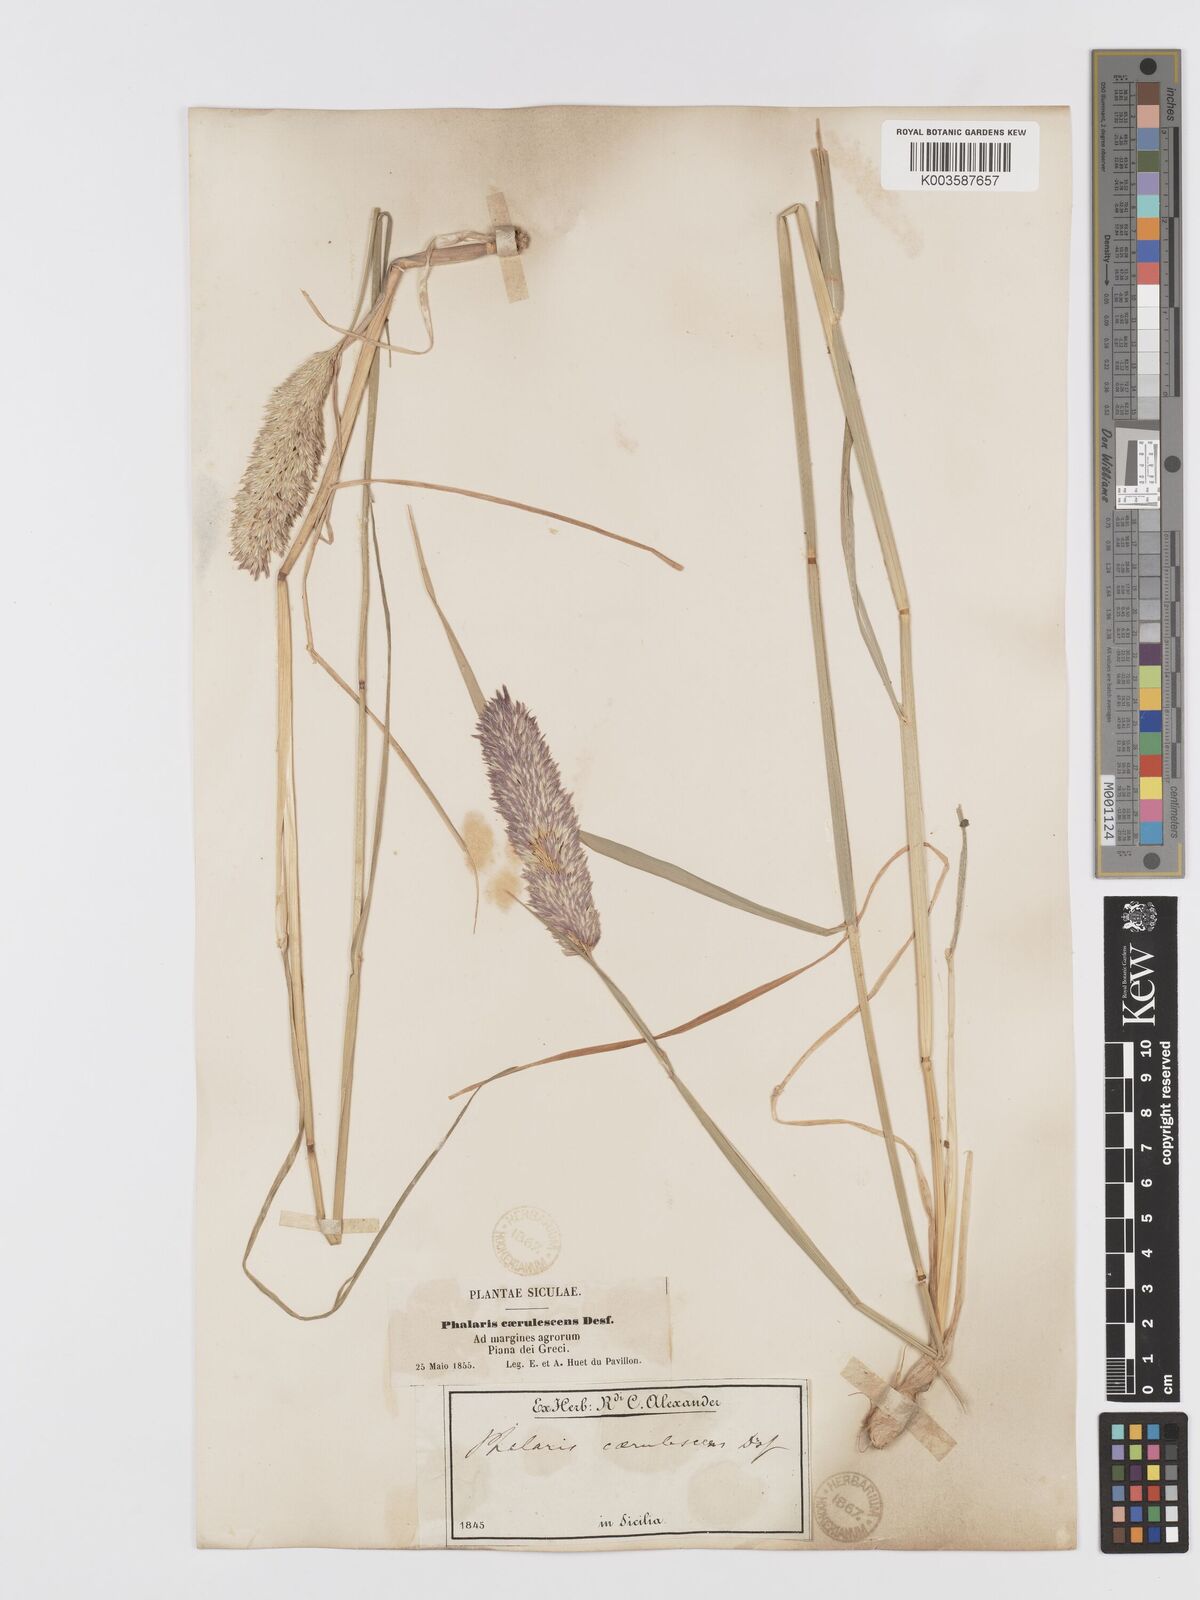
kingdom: Plantae
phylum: Tracheophyta
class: Liliopsida
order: Poales
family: Poaceae
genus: Phalaris
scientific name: Phalaris coerulescens
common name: Sunolgrass
